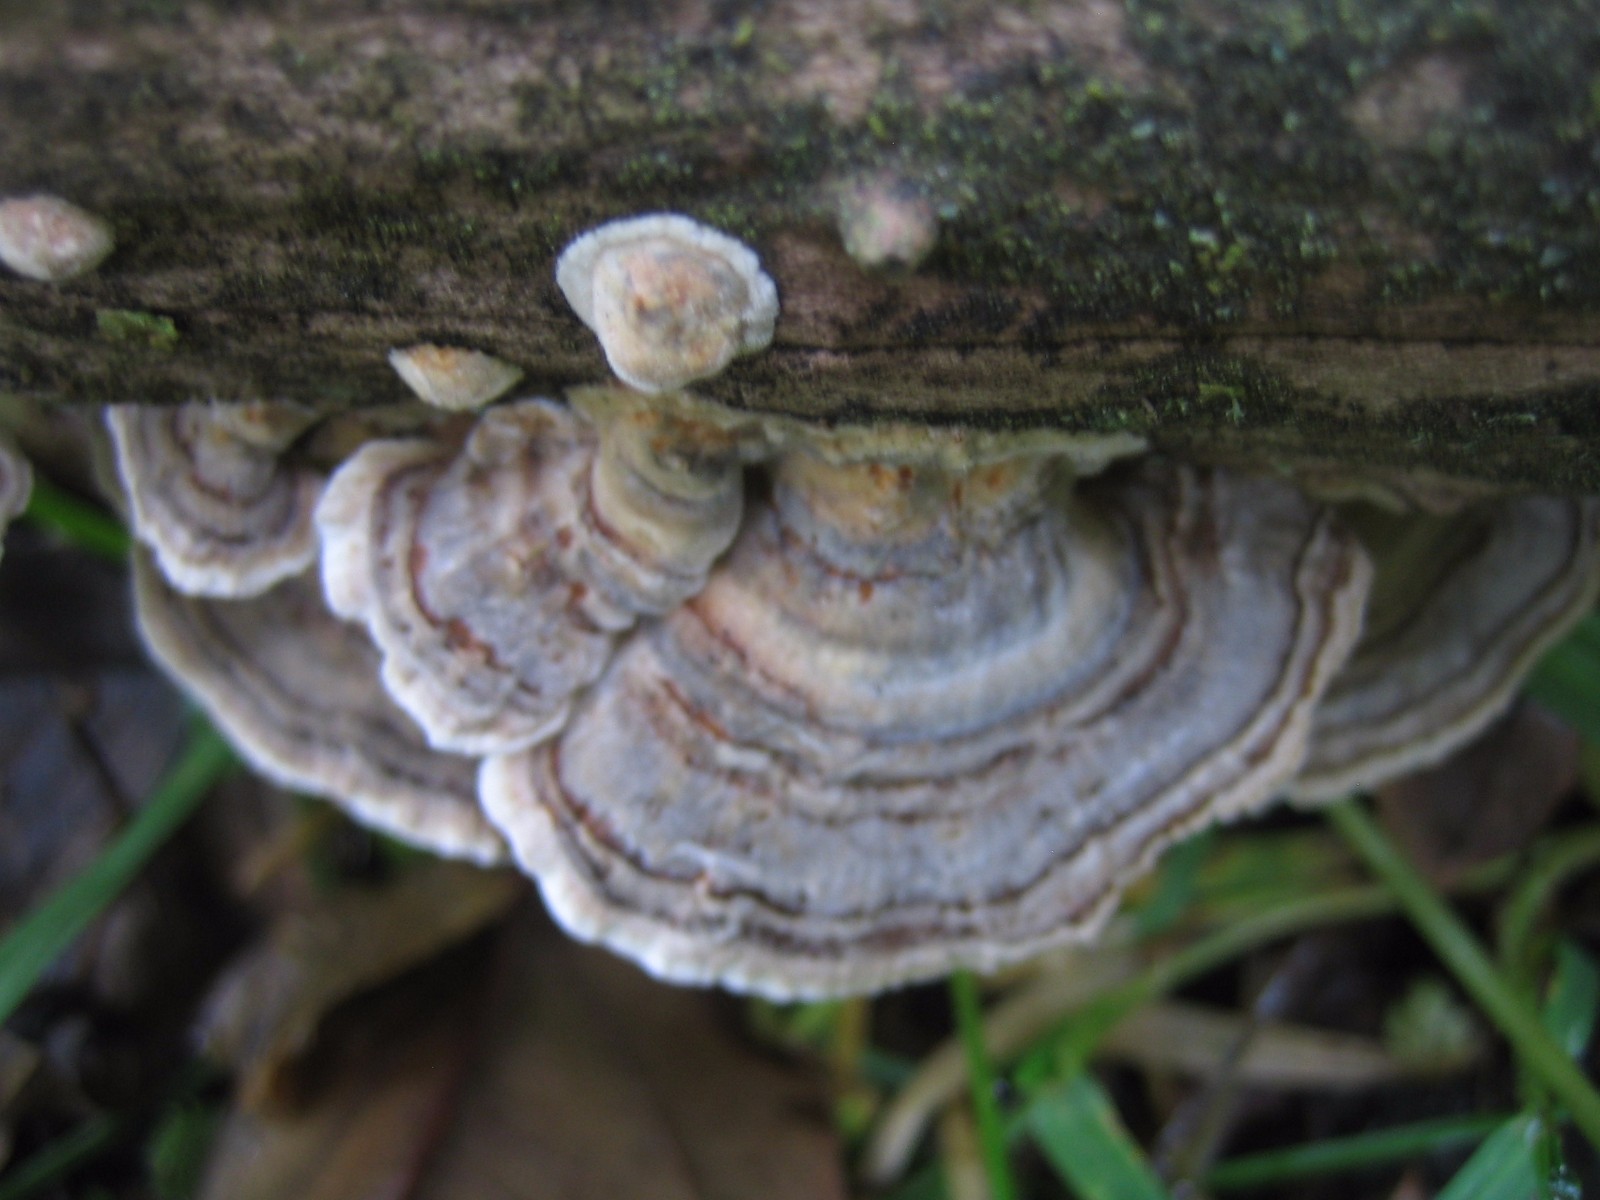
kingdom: Fungi
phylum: Basidiomycota
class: Agaricomycetes
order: Polyporales
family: Polyporaceae
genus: Trametes
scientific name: Trametes versicolor
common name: broget læderporesvamp
